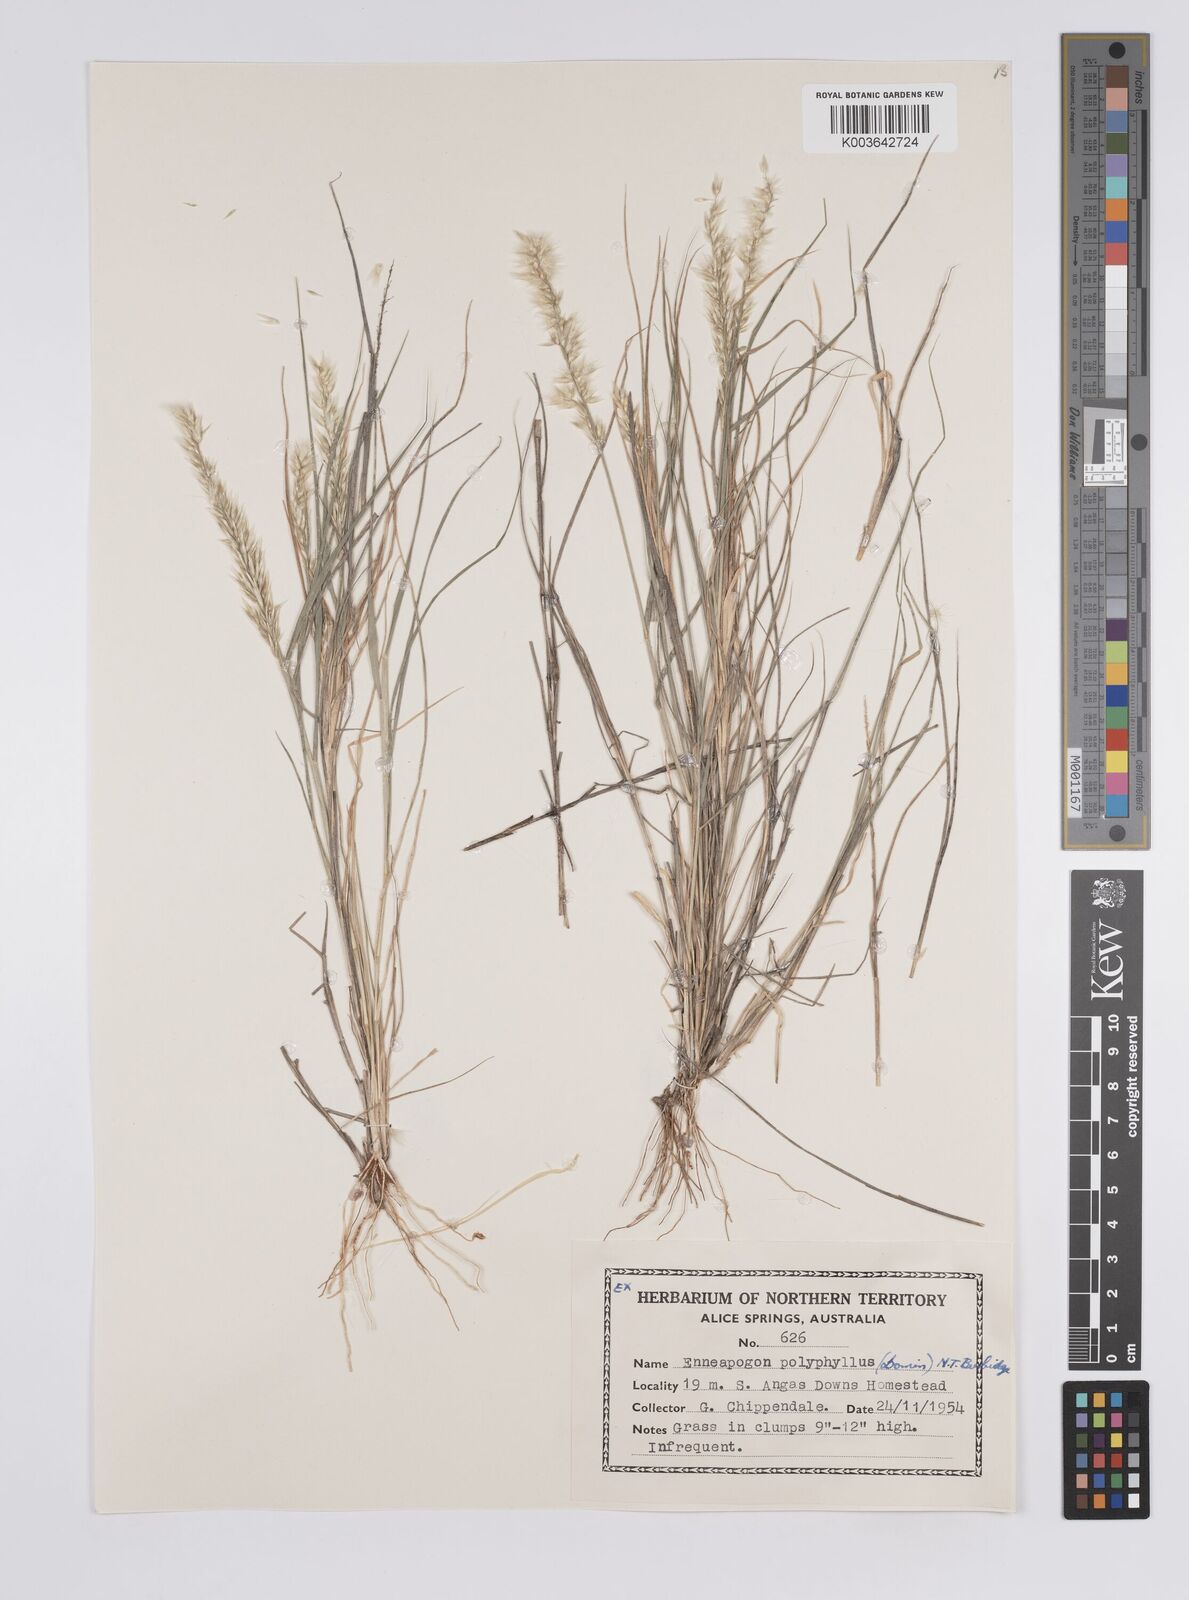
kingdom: Plantae
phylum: Tracheophyta
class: Liliopsida
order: Poales
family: Poaceae
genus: Enneapogon
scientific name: Enneapogon polyphyllus
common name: Leafy nineawn
